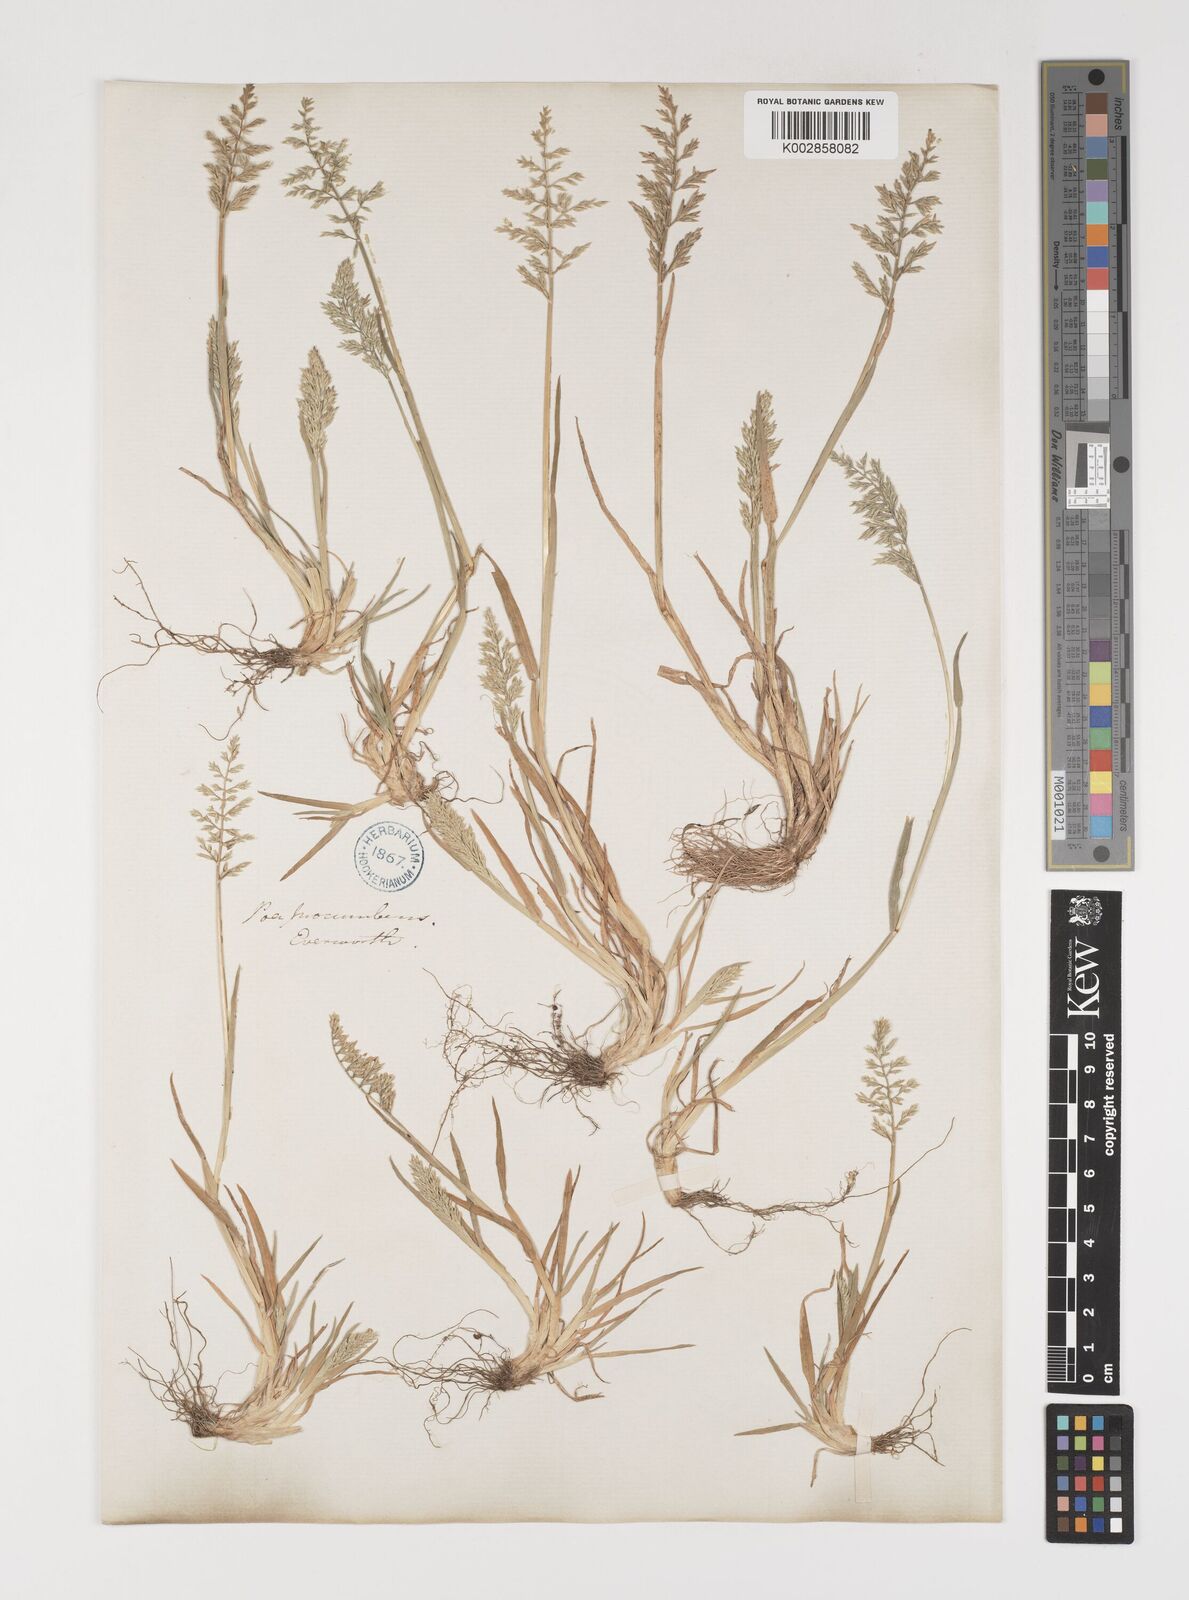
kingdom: Plantae
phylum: Tracheophyta
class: Liliopsida
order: Poales
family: Poaceae
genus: Puccinellia
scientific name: Puccinellia rupestris
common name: Stiff saltmarsh-grass
